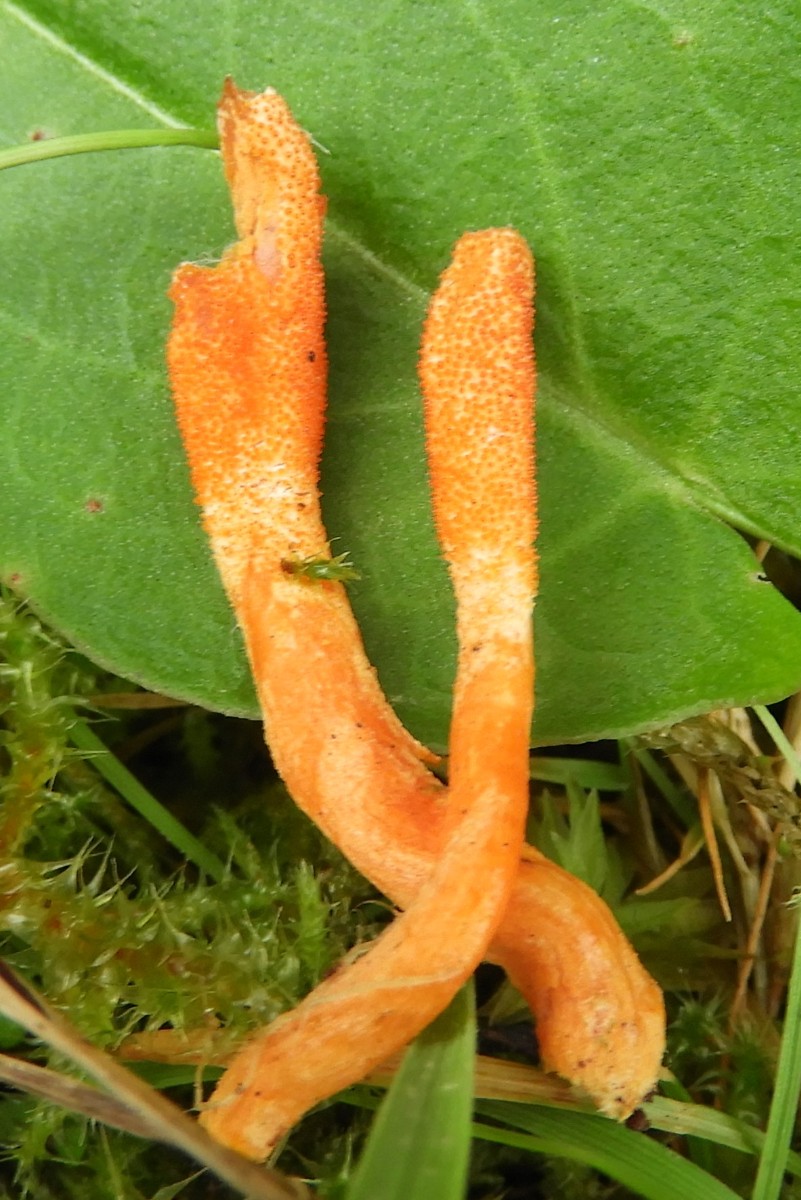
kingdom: Fungi
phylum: Ascomycota
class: Sordariomycetes
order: Hypocreales
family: Cordycipitaceae
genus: Cordyceps
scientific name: Cordyceps militaris
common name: puppe-snyltekølle
